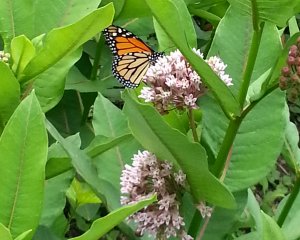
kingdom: Animalia
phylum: Arthropoda
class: Insecta
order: Lepidoptera
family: Nymphalidae
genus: Danaus
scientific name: Danaus plexippus
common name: Monarch
